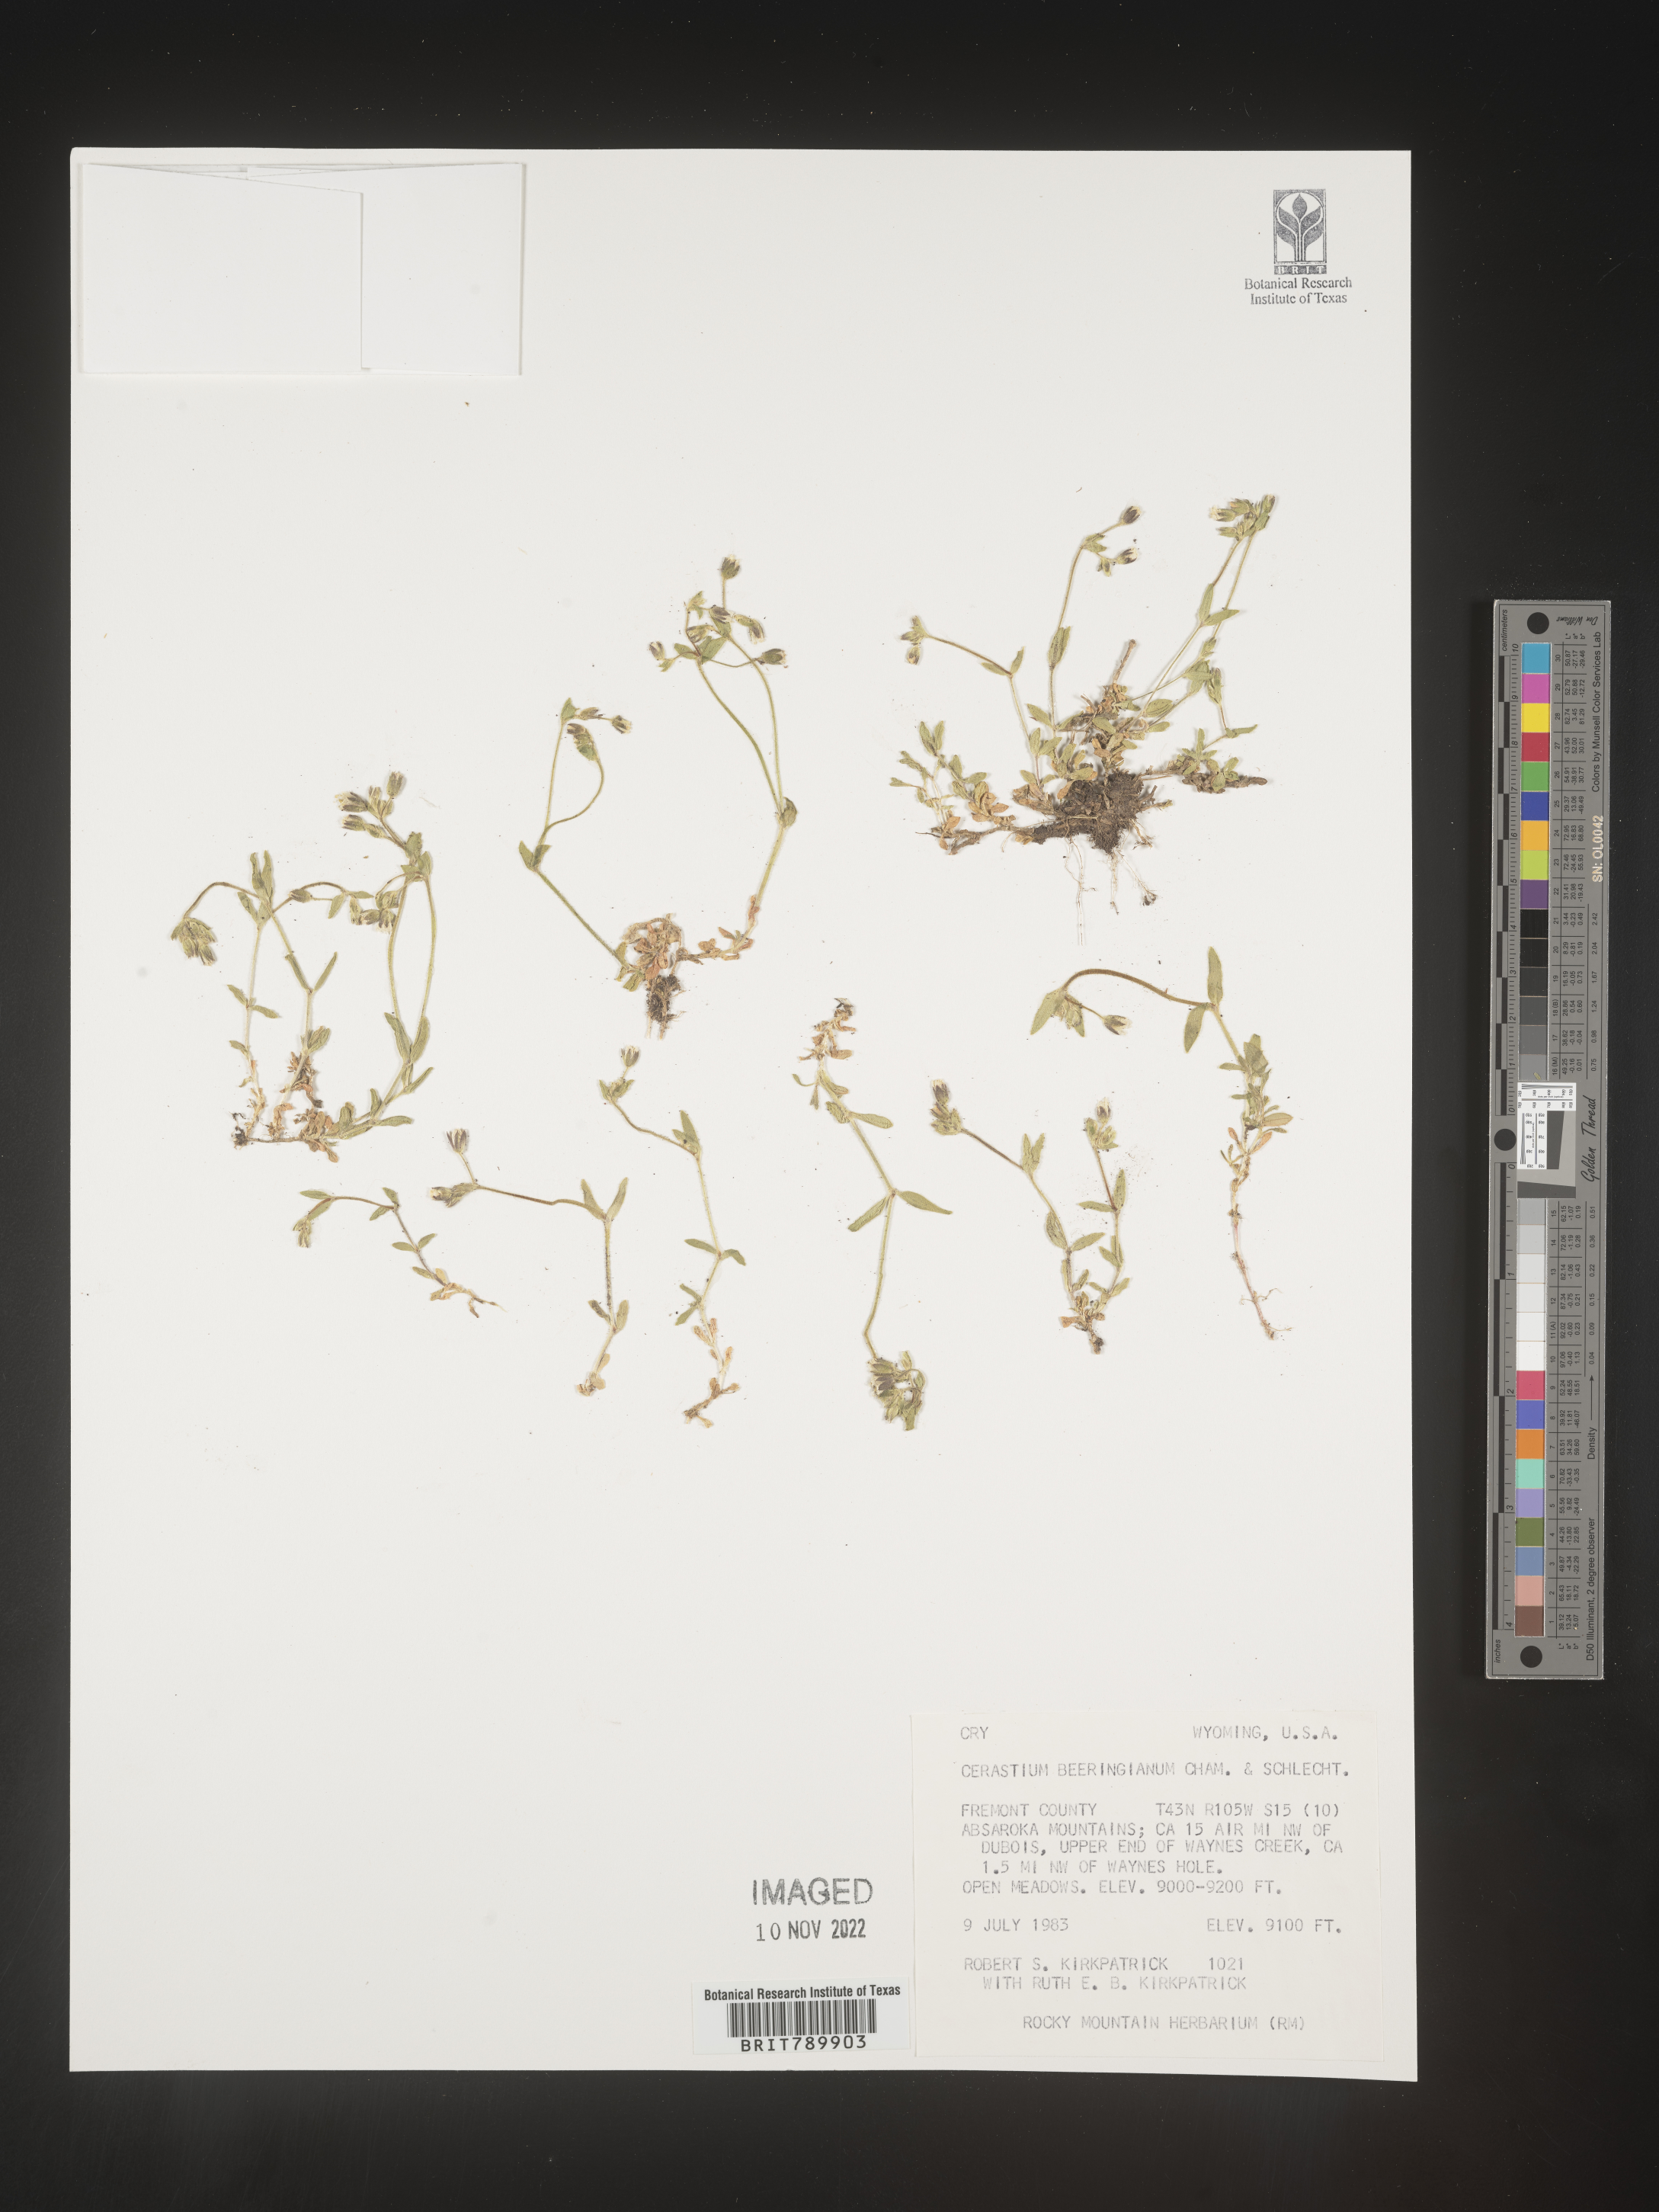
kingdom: Plantae
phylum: Tracheophyta
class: Magnoliopsida
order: Caryophyllales
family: Caryophyllaceae
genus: Cerastium
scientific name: Cerastium beeringianum
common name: Bering mouse-ear chickweed
